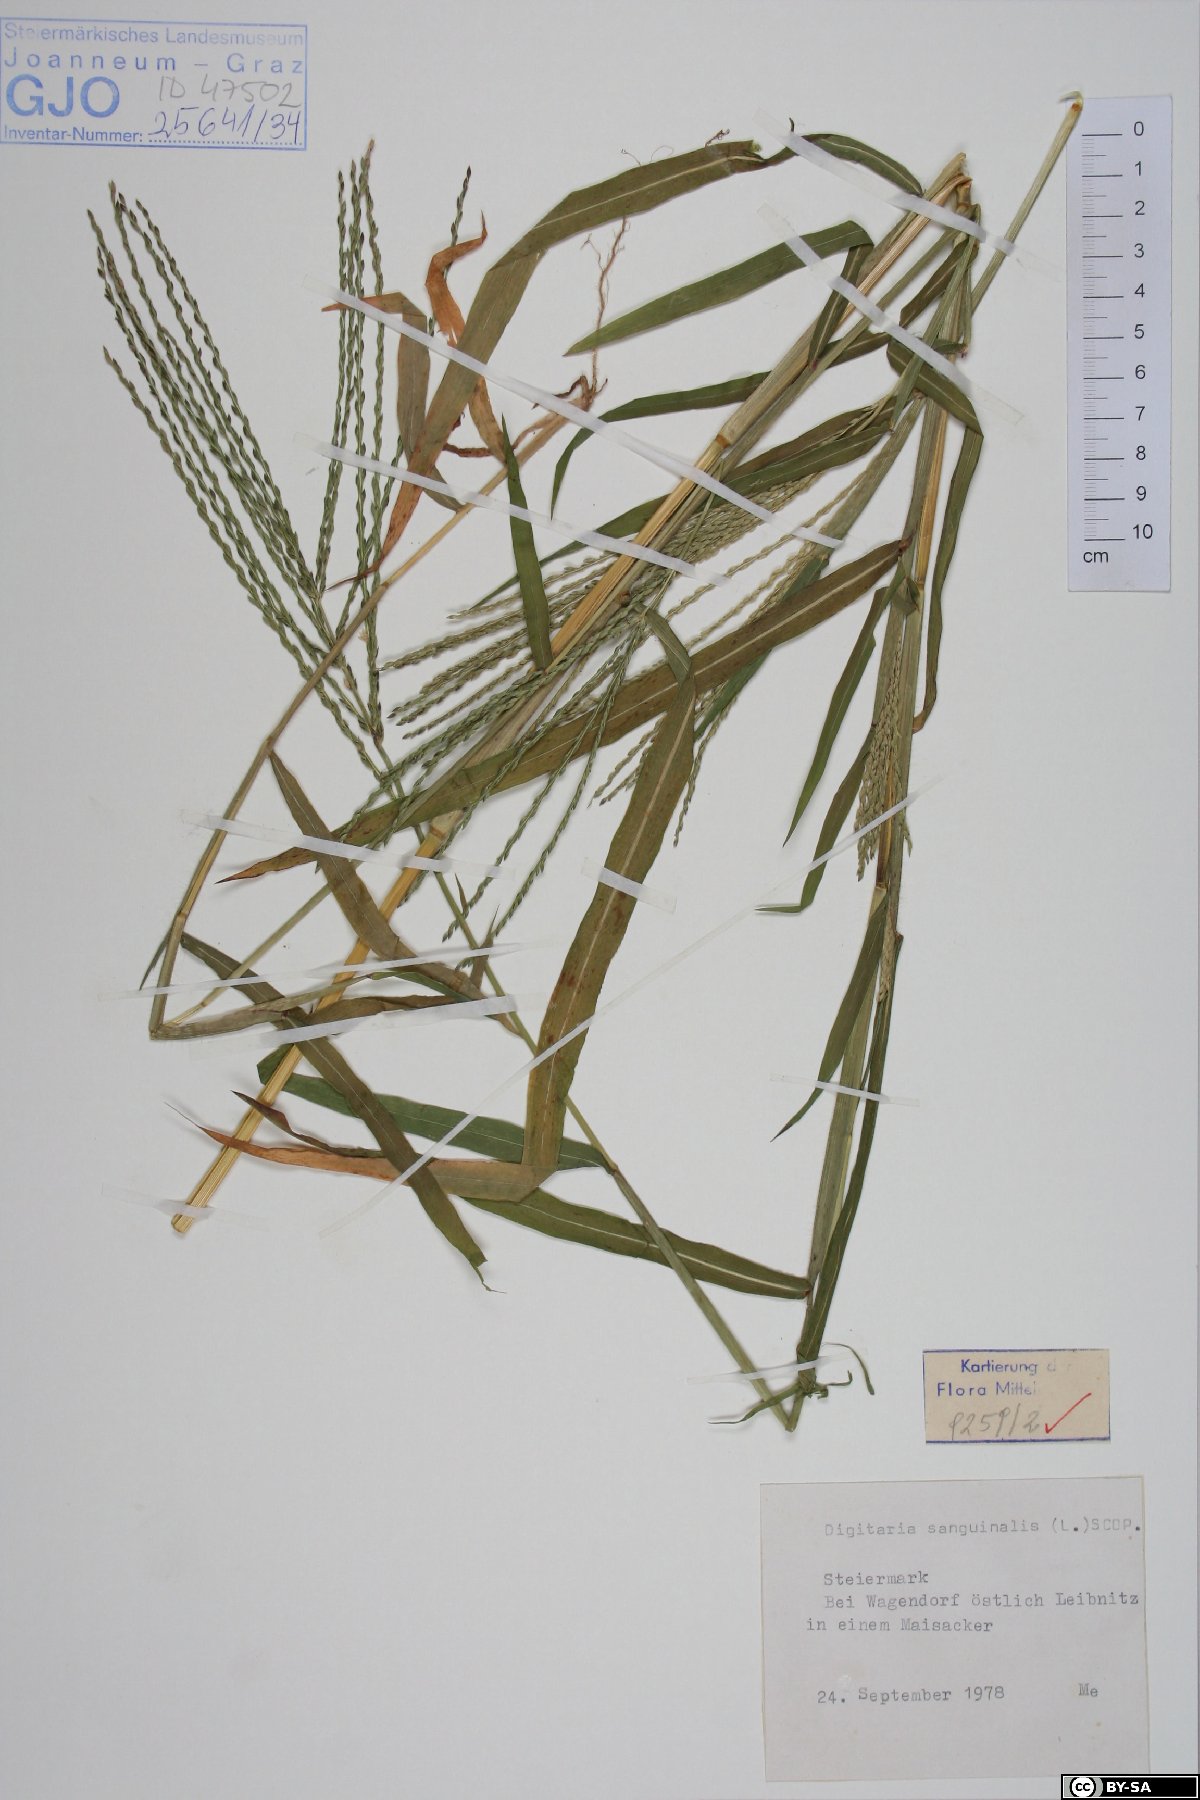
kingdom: Plantae
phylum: Tracheophyta
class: Liliopsida
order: Poales
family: Poaceae
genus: Digitaria
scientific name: Digitaria sanguinalis
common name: Hairy crabgrass
